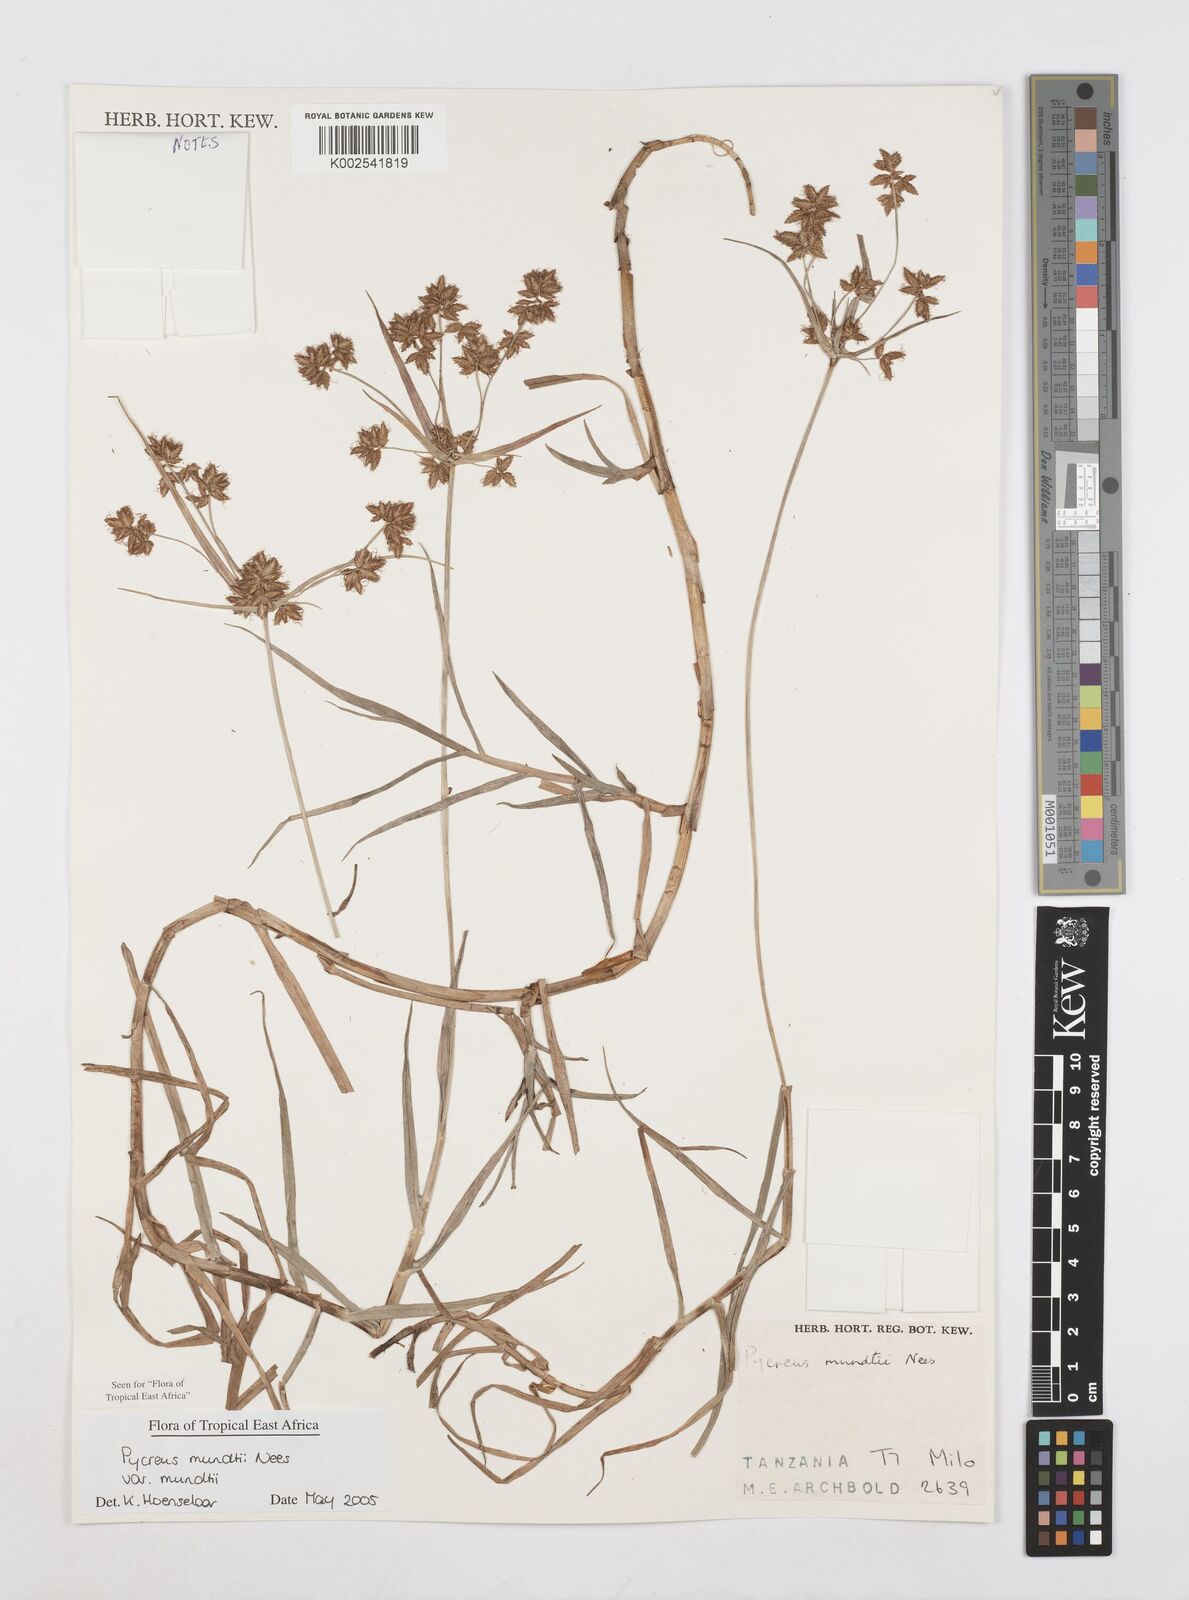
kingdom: Plantae
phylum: Tracheophyta
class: Liliopsida
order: Poales
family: Cyperaceae
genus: Cyperus
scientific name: Cyperus mundii
